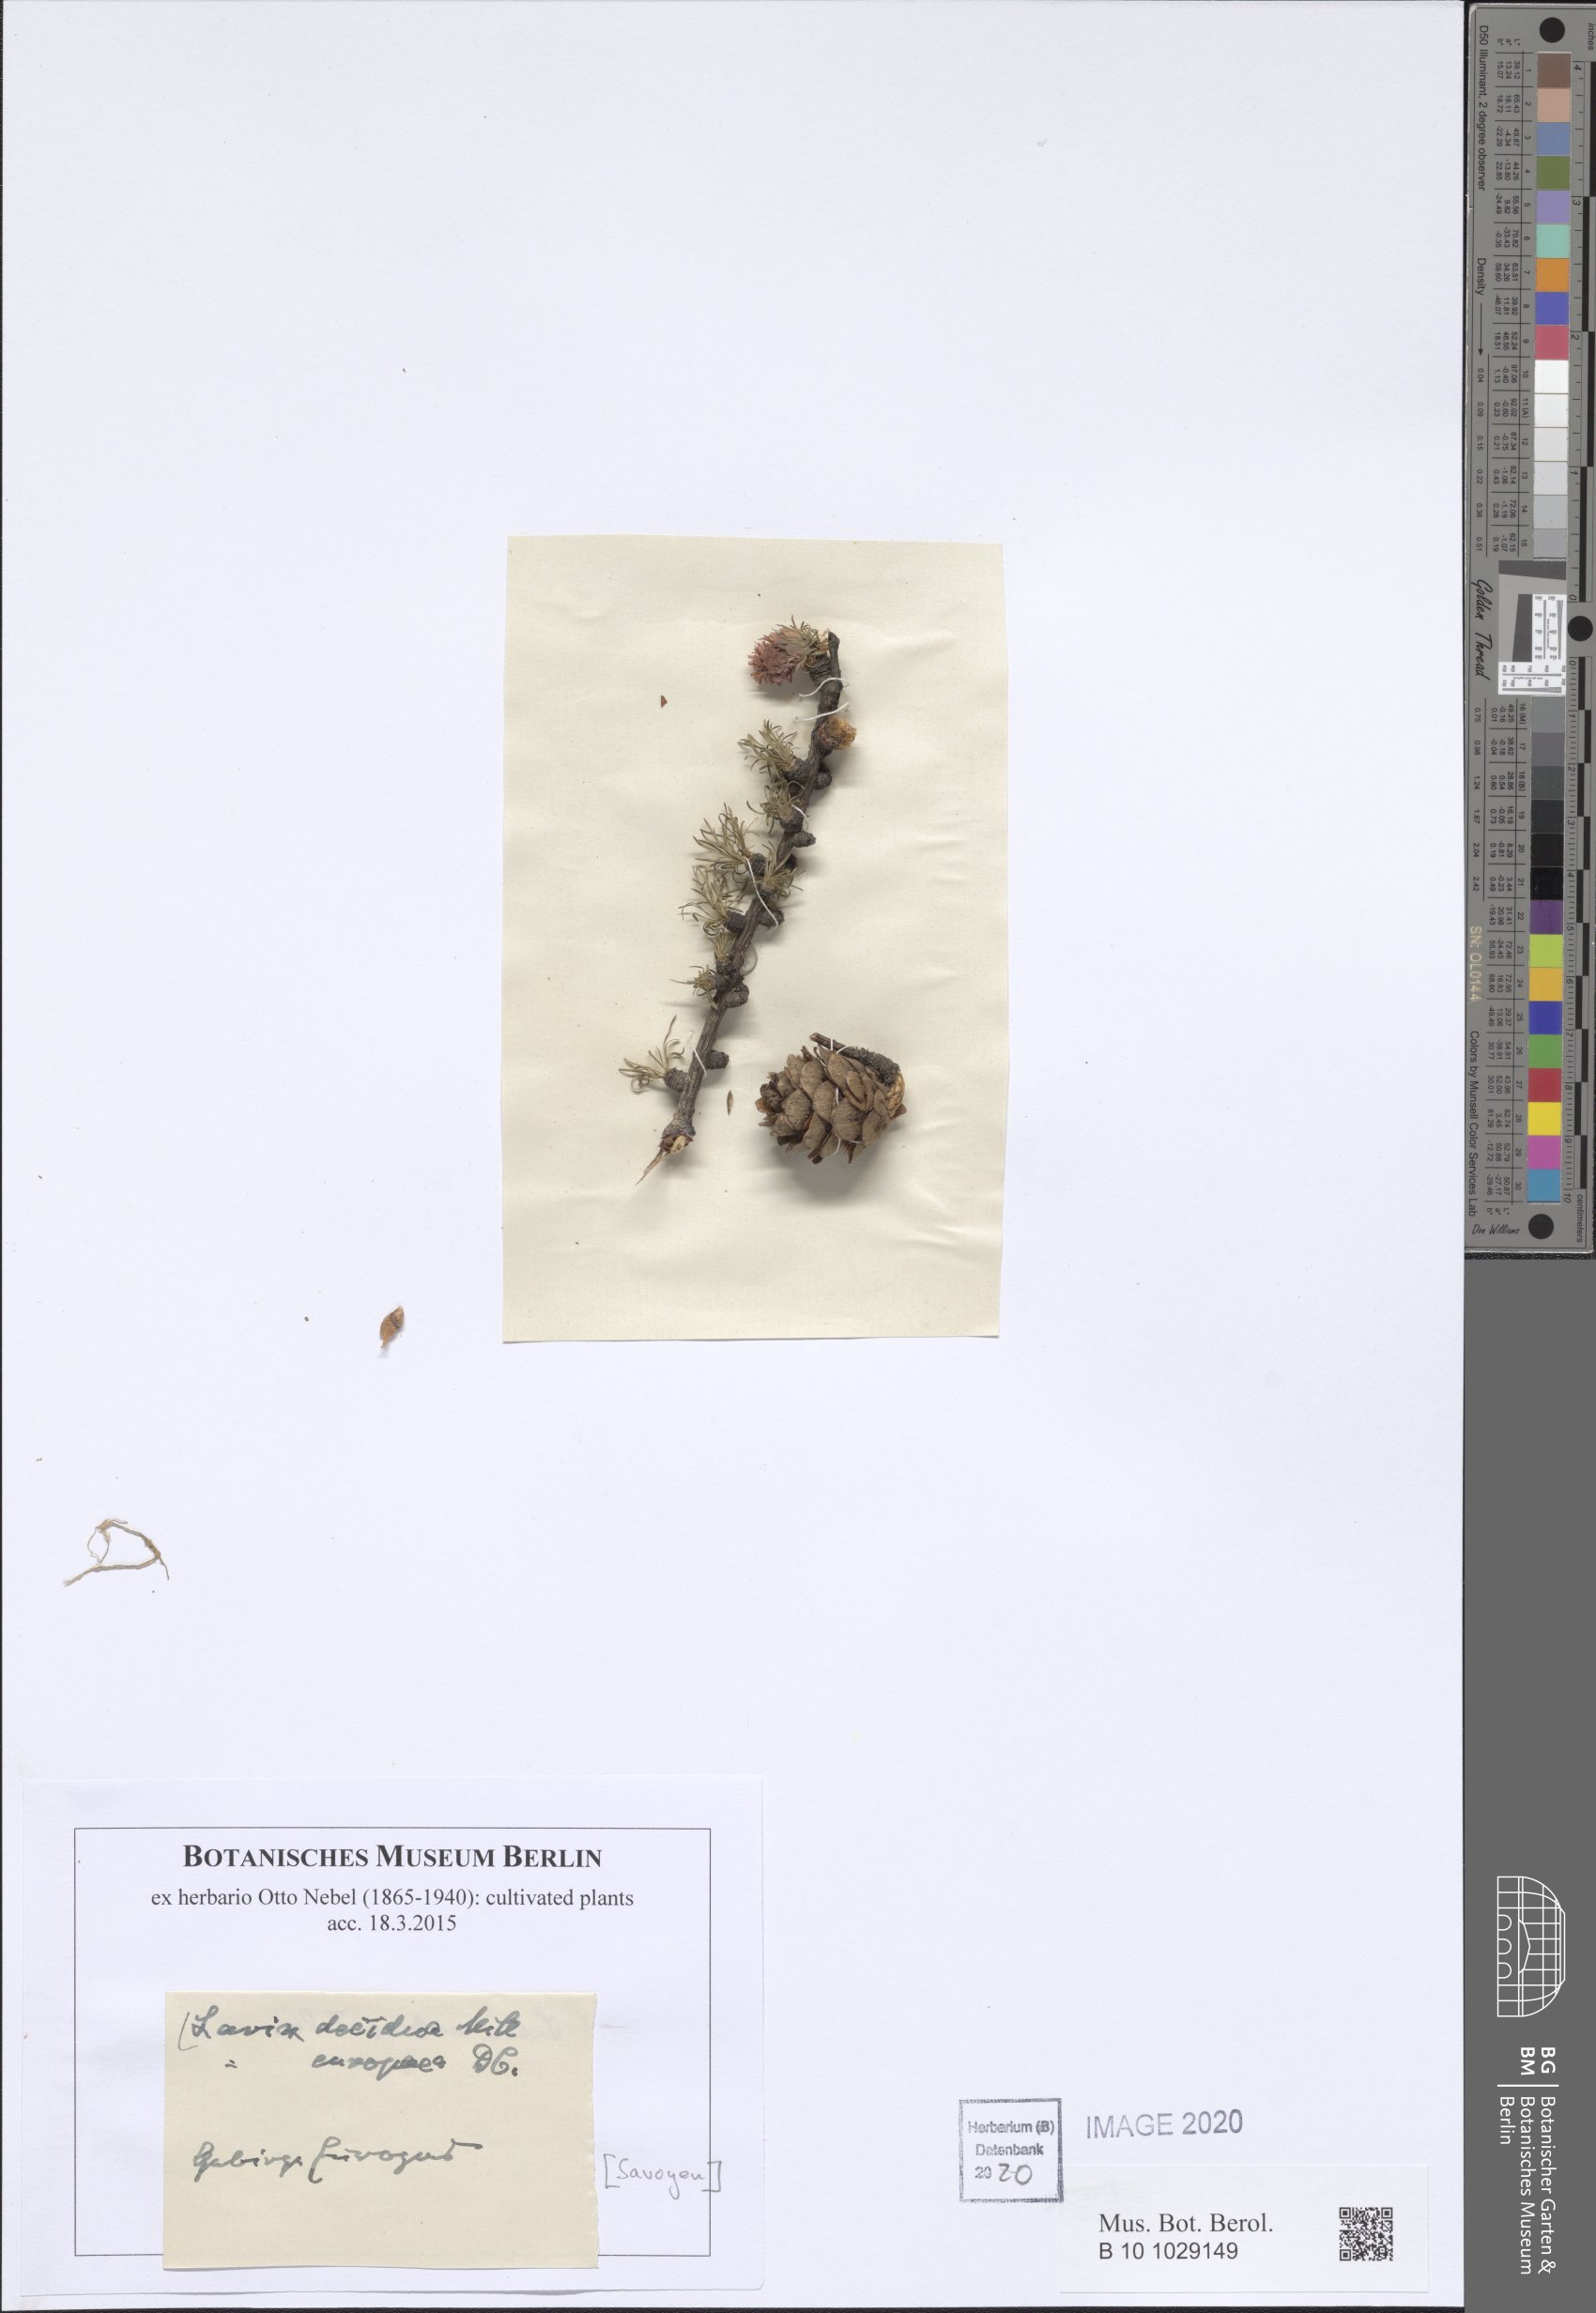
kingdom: Plantae
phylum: Tracheophyta
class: Pinopsida
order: Pinales
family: Pinaceae
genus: Larix
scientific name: Larix decidua
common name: European larch
